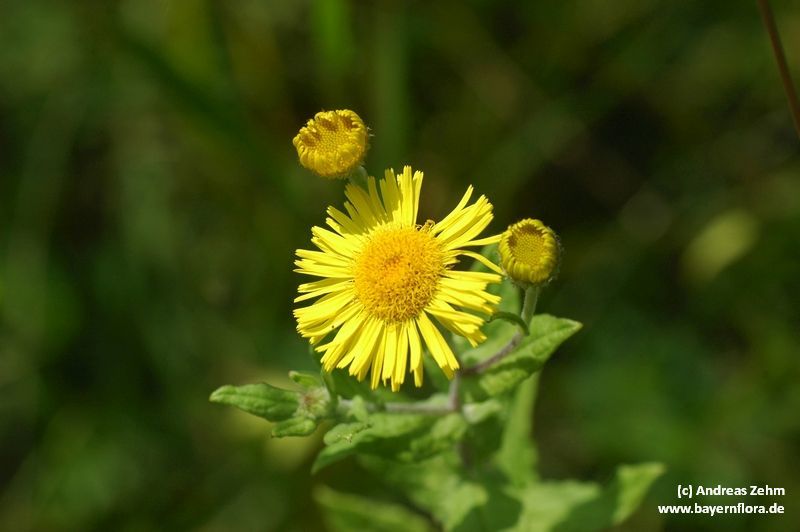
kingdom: Plantae
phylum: Tracheophyta
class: Magnoliopsida
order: Asterales
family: Asteraceae
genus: Pulicaria
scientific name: Pulicaria dysenterica
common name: Common fleabane
